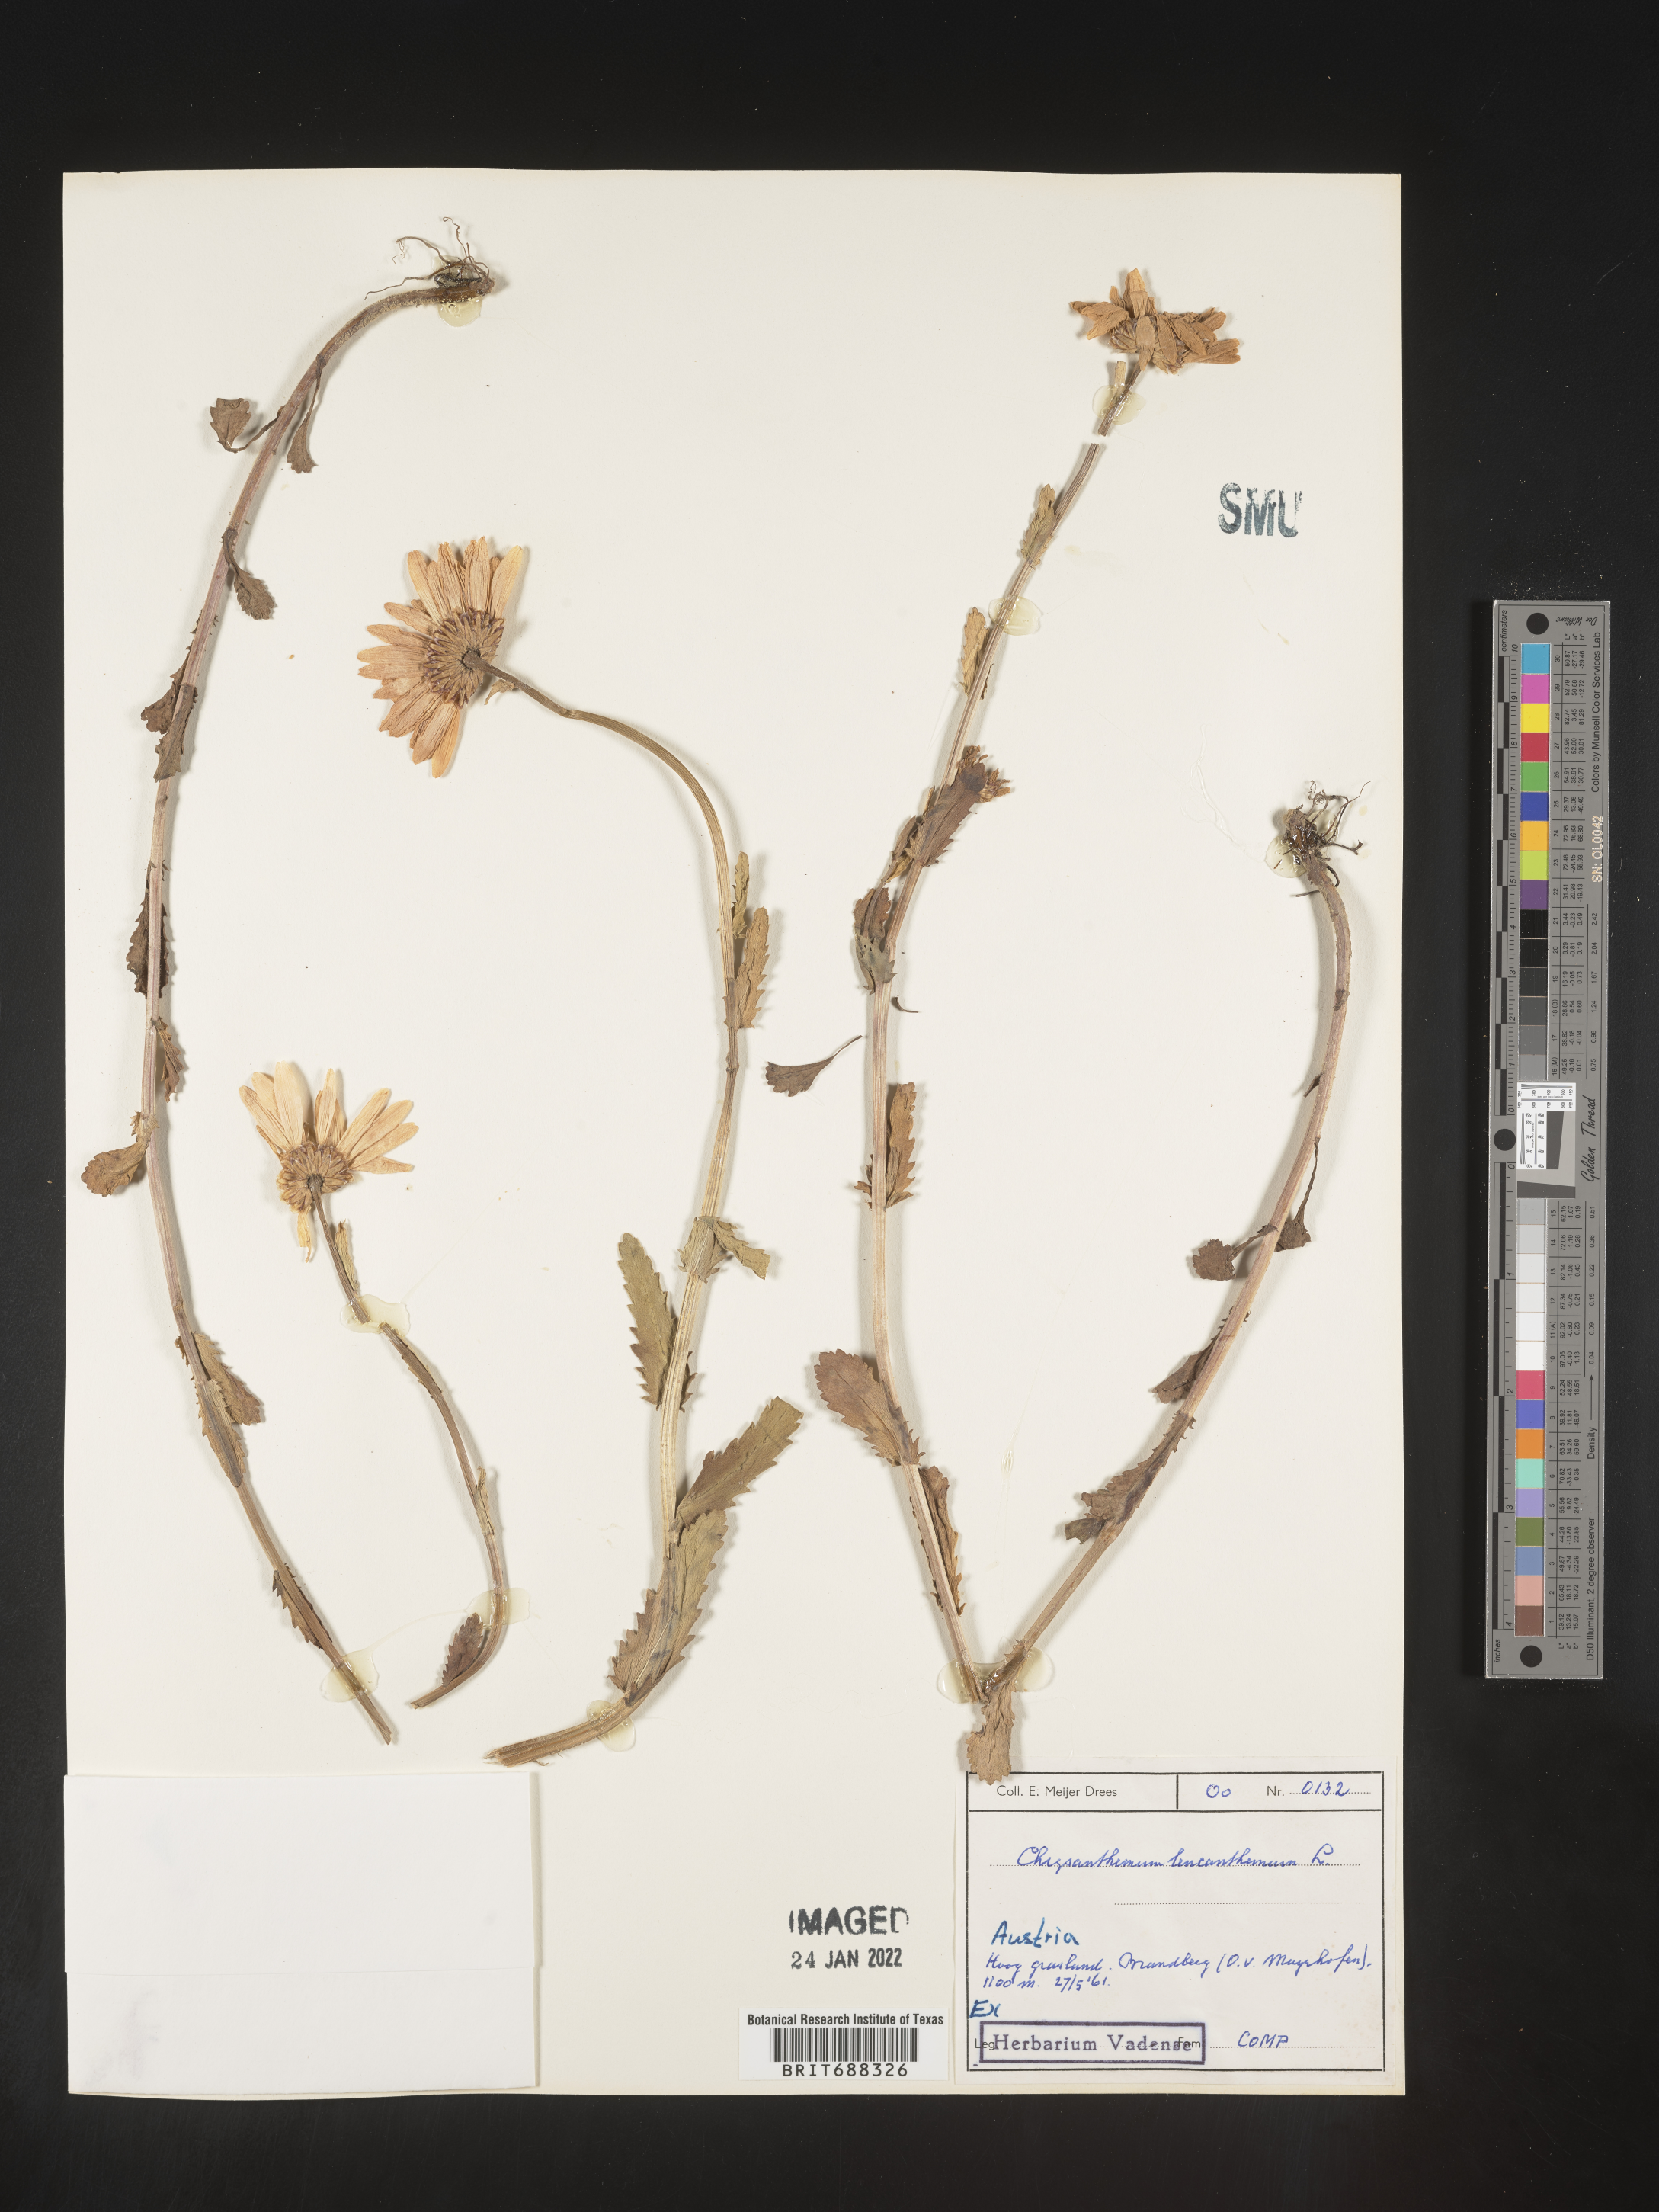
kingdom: Plantae
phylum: Tracheophyta
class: Magnoliopsida
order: Asterales
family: Asteraceae
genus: Chrysanthemum
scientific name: Chrysanthemum
